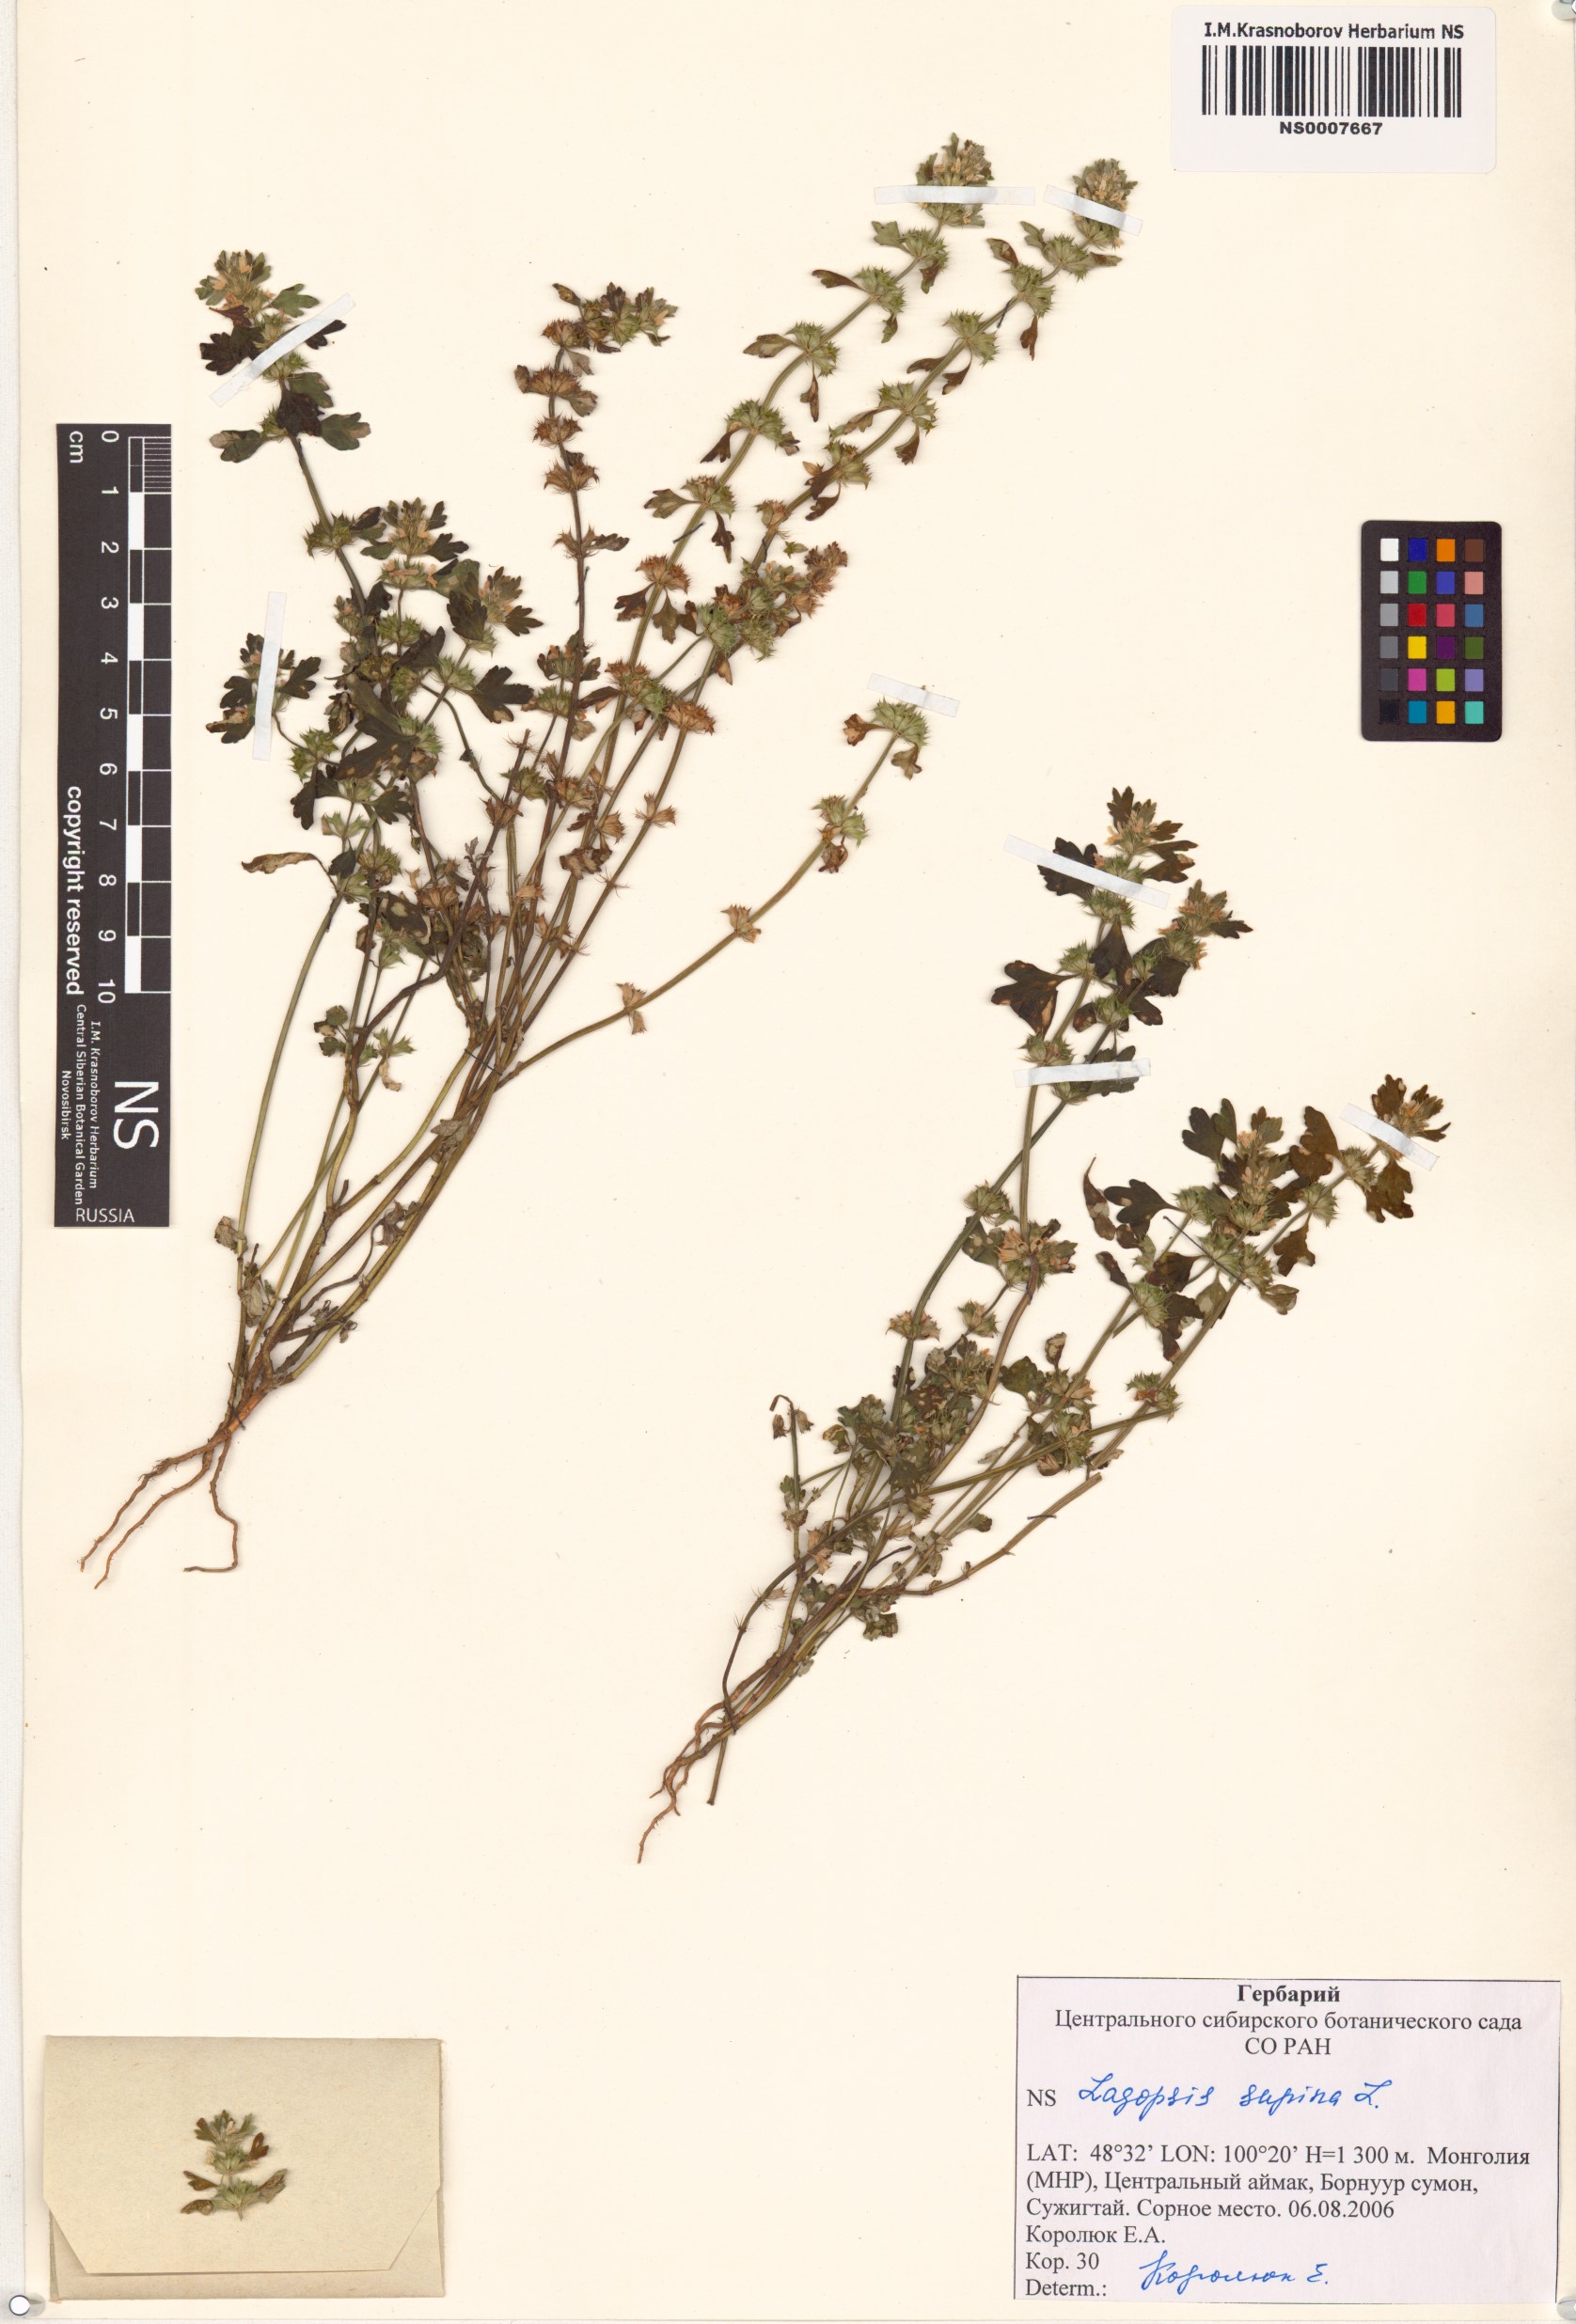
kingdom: Plantae
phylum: Tracheophyta
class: Magnoliopsida
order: Lamiales
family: Lamiaceae
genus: Lagopsis
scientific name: Lagopsis supina
